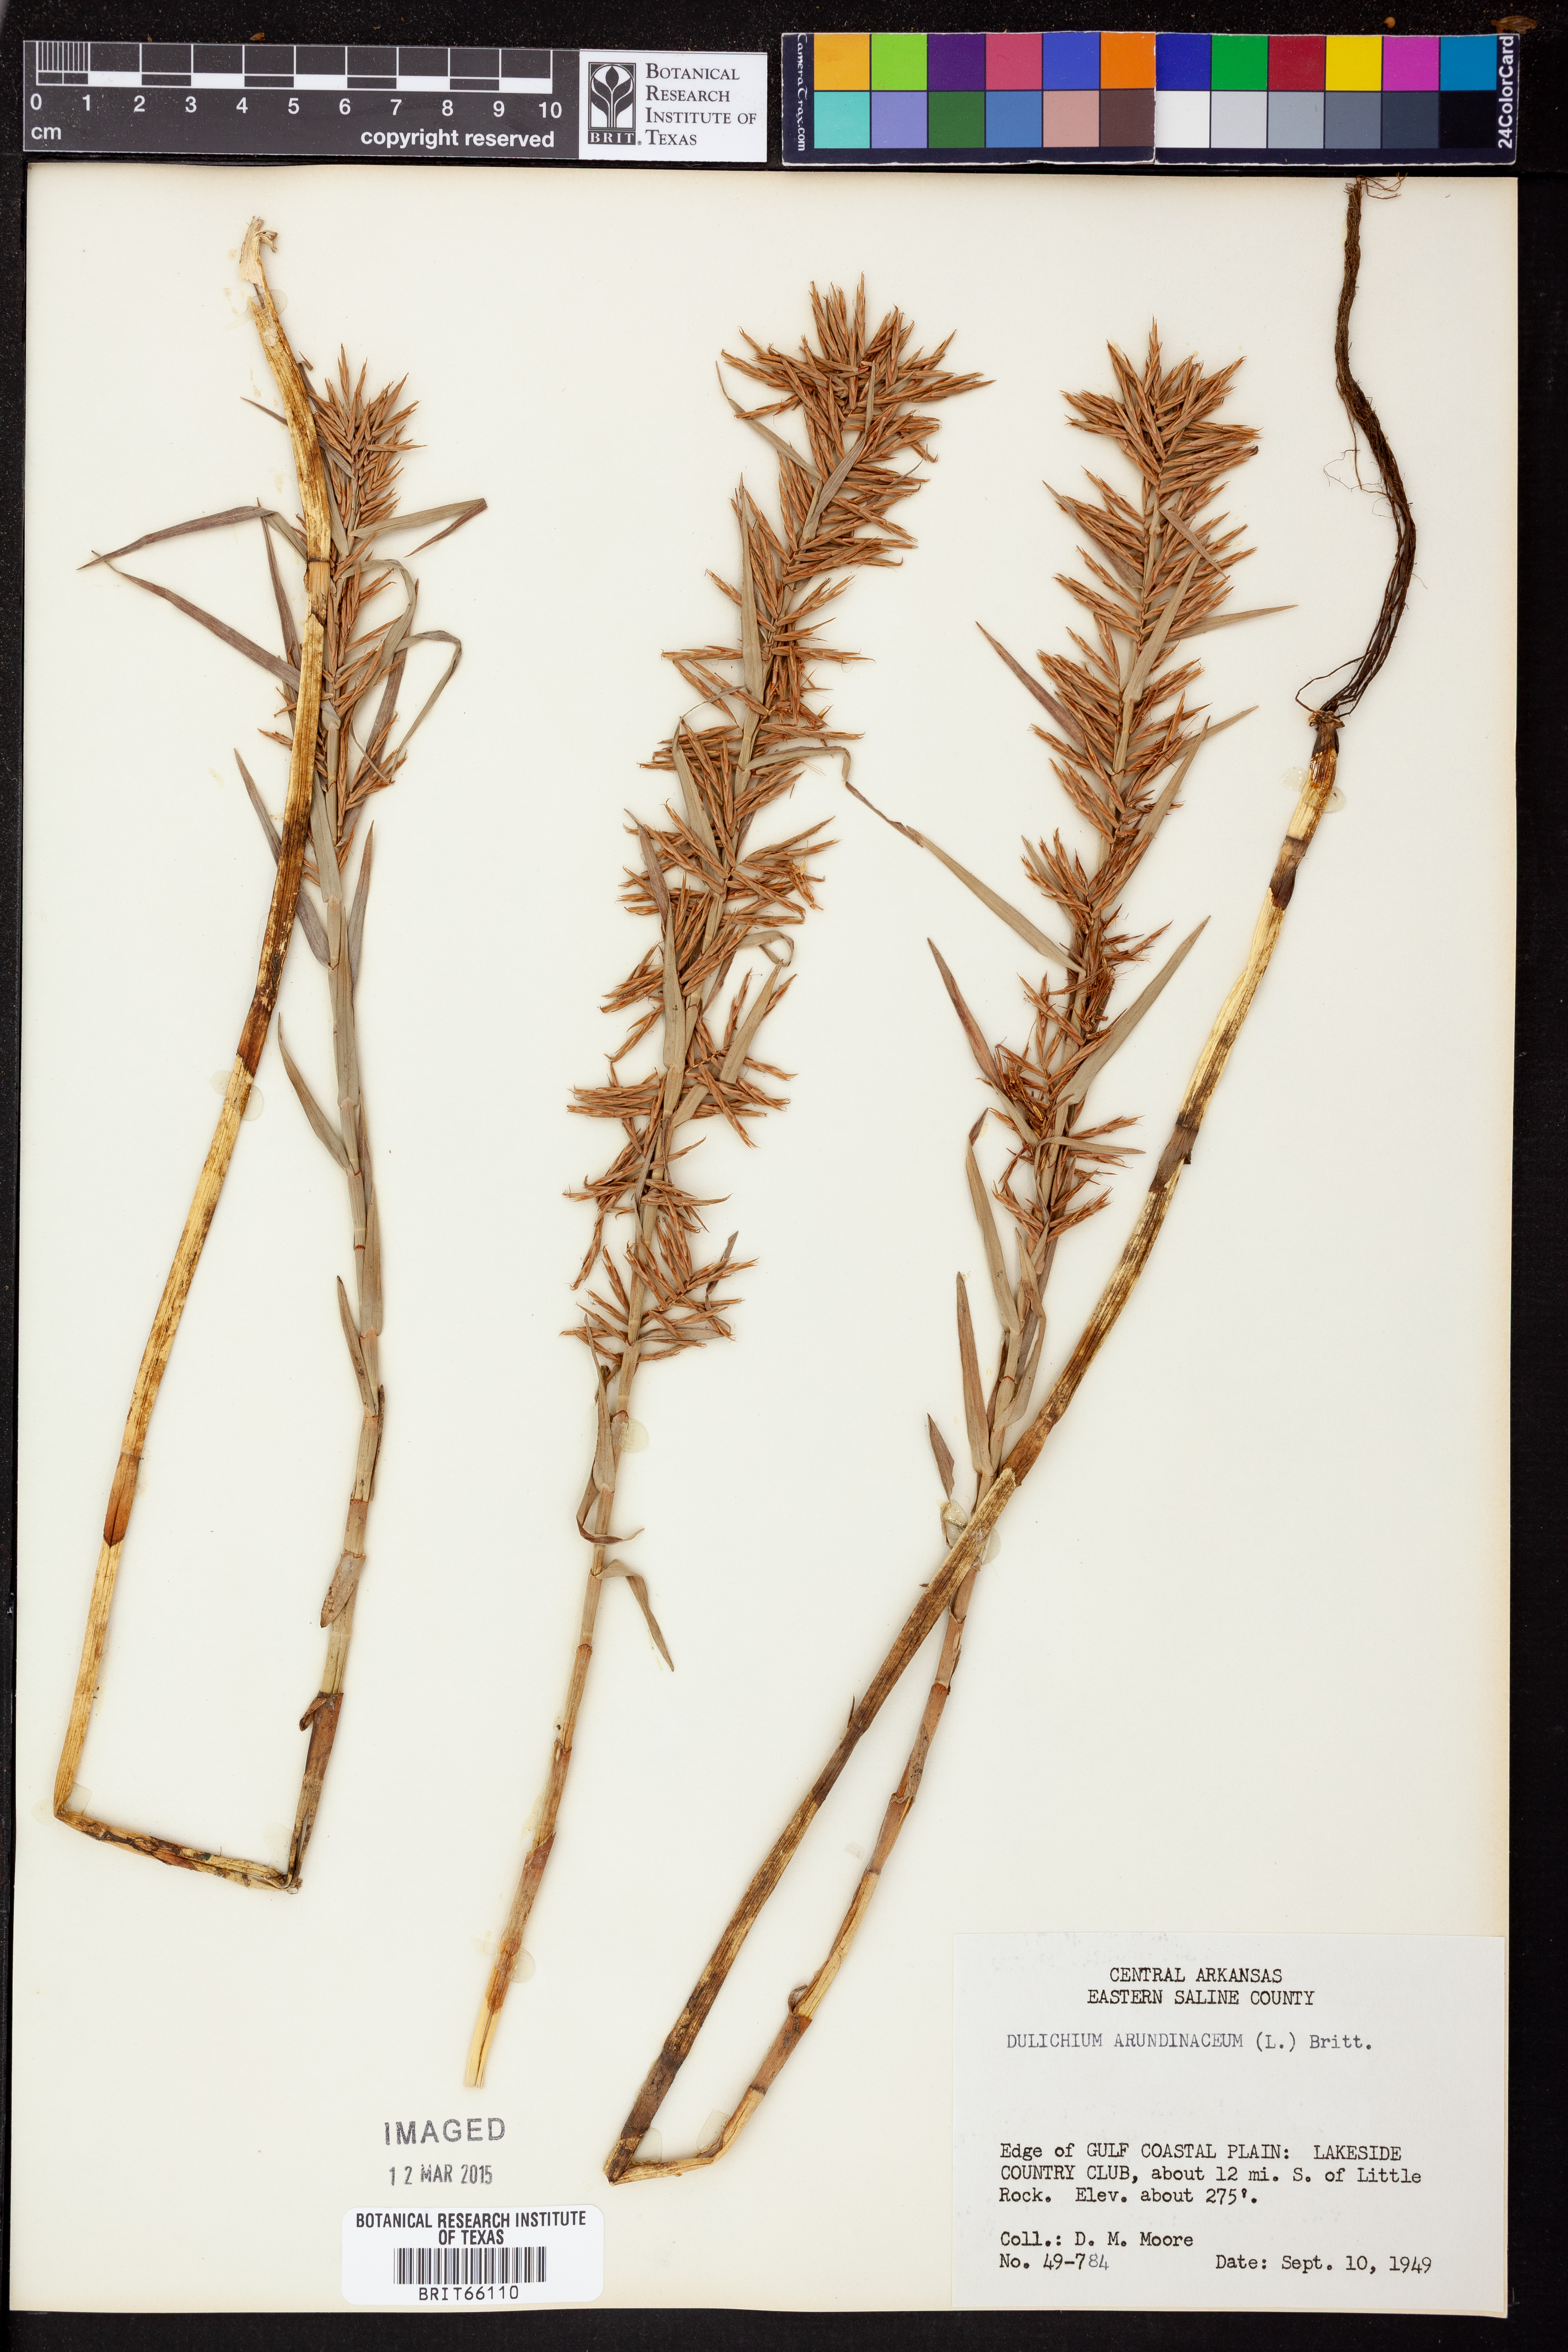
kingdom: Plantae
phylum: Tracheophyta
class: Liliopsida
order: Poales
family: Cyperaceae
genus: Dulichium
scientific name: Dulichium arundinaceum
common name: Three-way sedge
